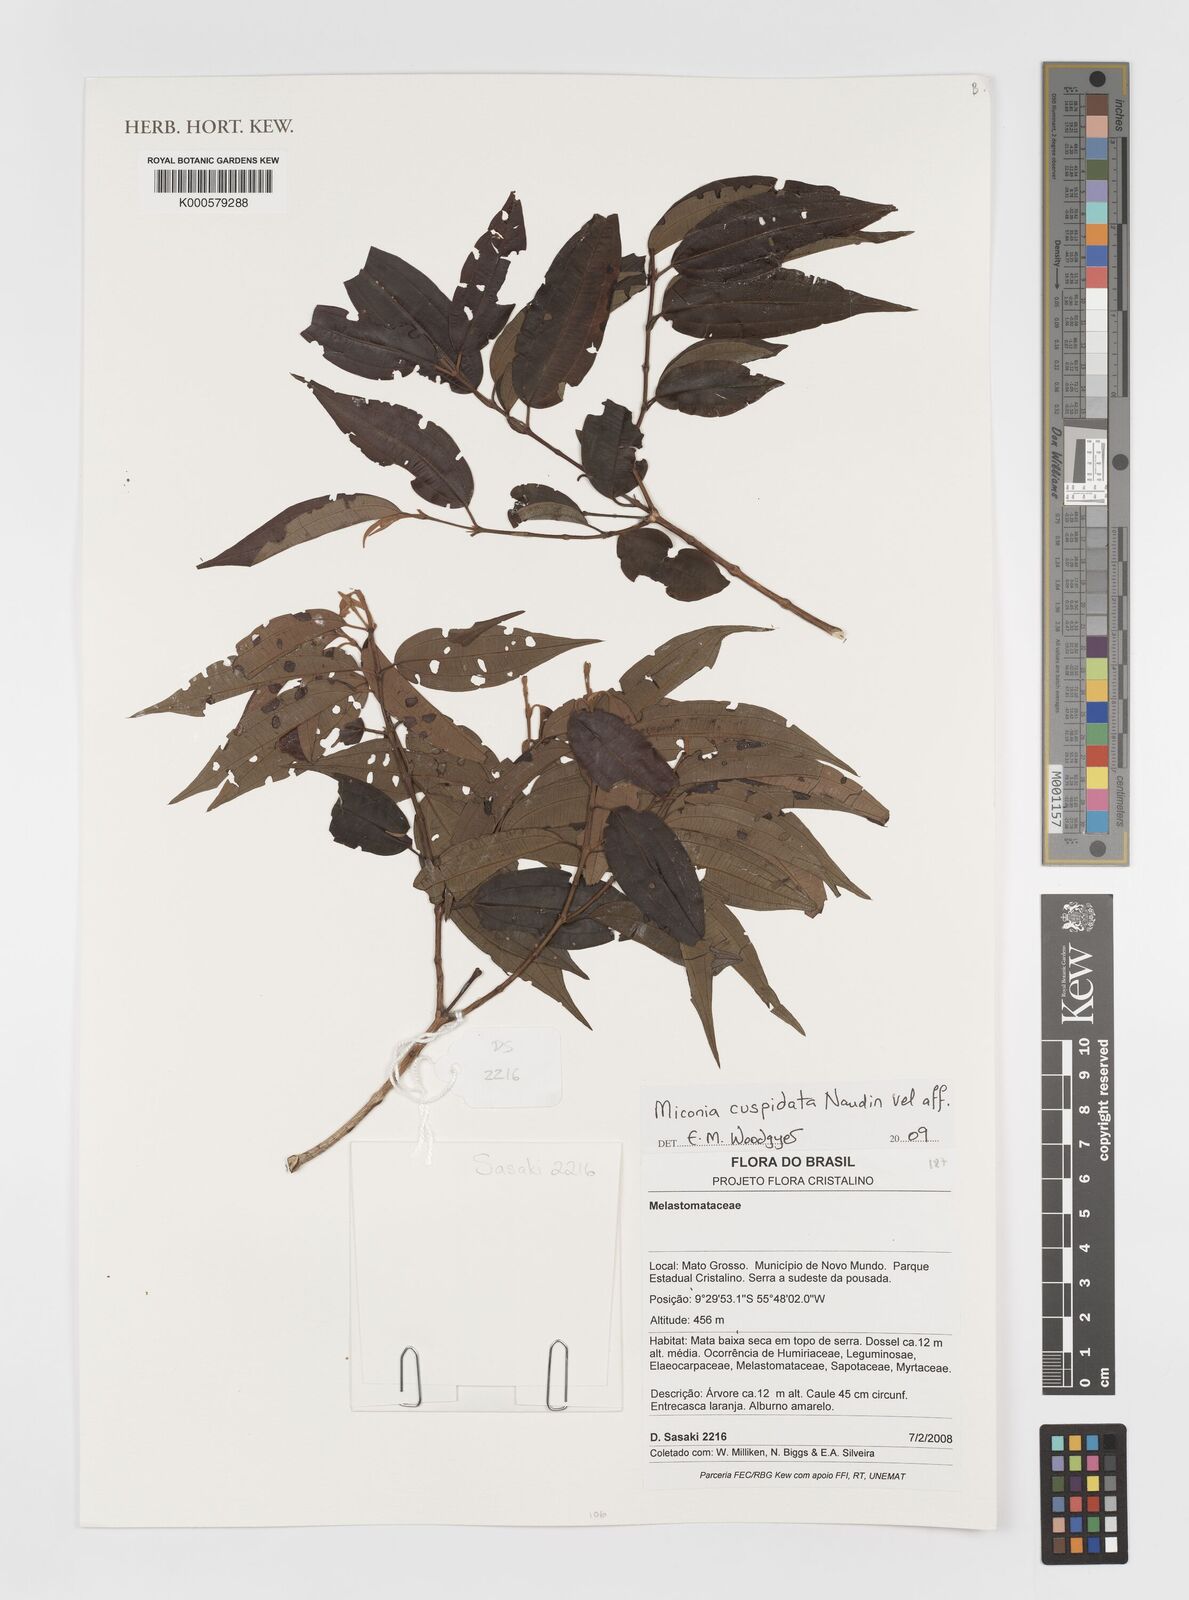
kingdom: Plantae
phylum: Tracheophyta
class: Magnoliopsida
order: Myrtales
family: Melastomataceae
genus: Miconia
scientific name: Miconia cuspidata
